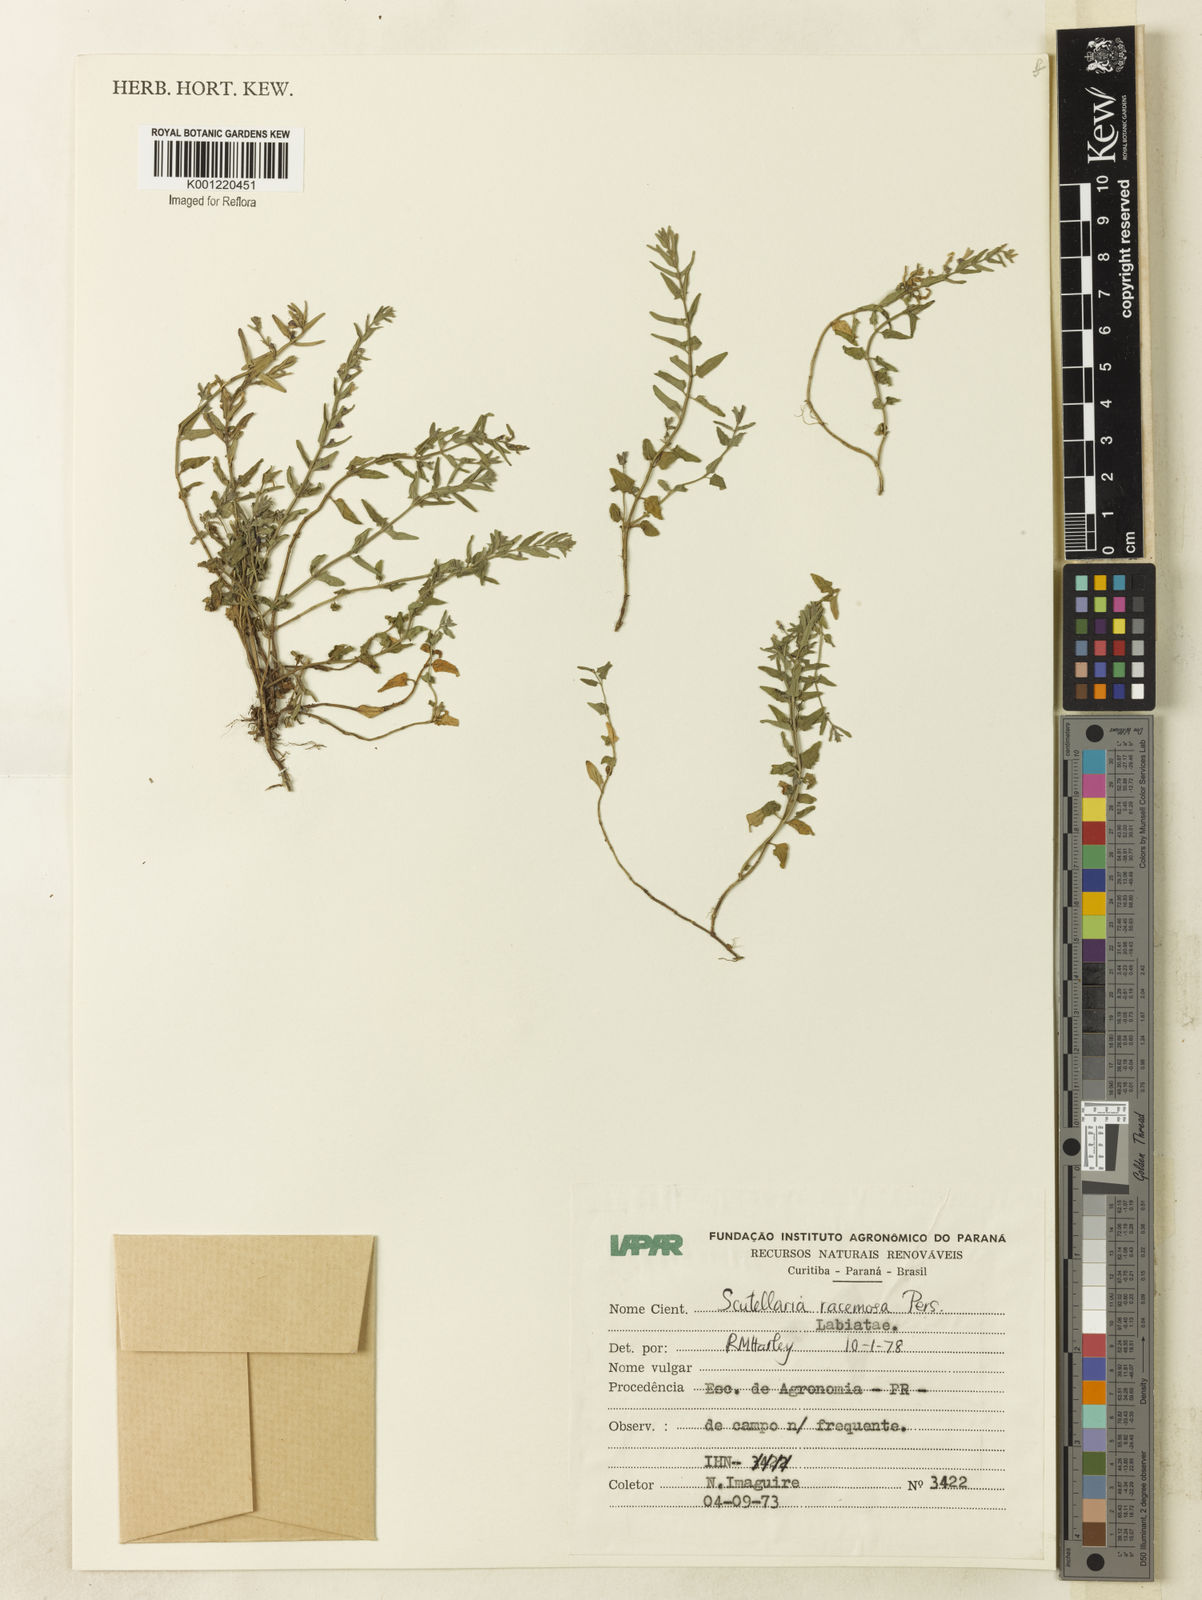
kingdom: Plantae
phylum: Tracheophyta
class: Magnoliopsida
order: Lamiales
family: Lamiaceae
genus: Scutellaria
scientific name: Scutellaria racemosa
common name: South american skullcap
